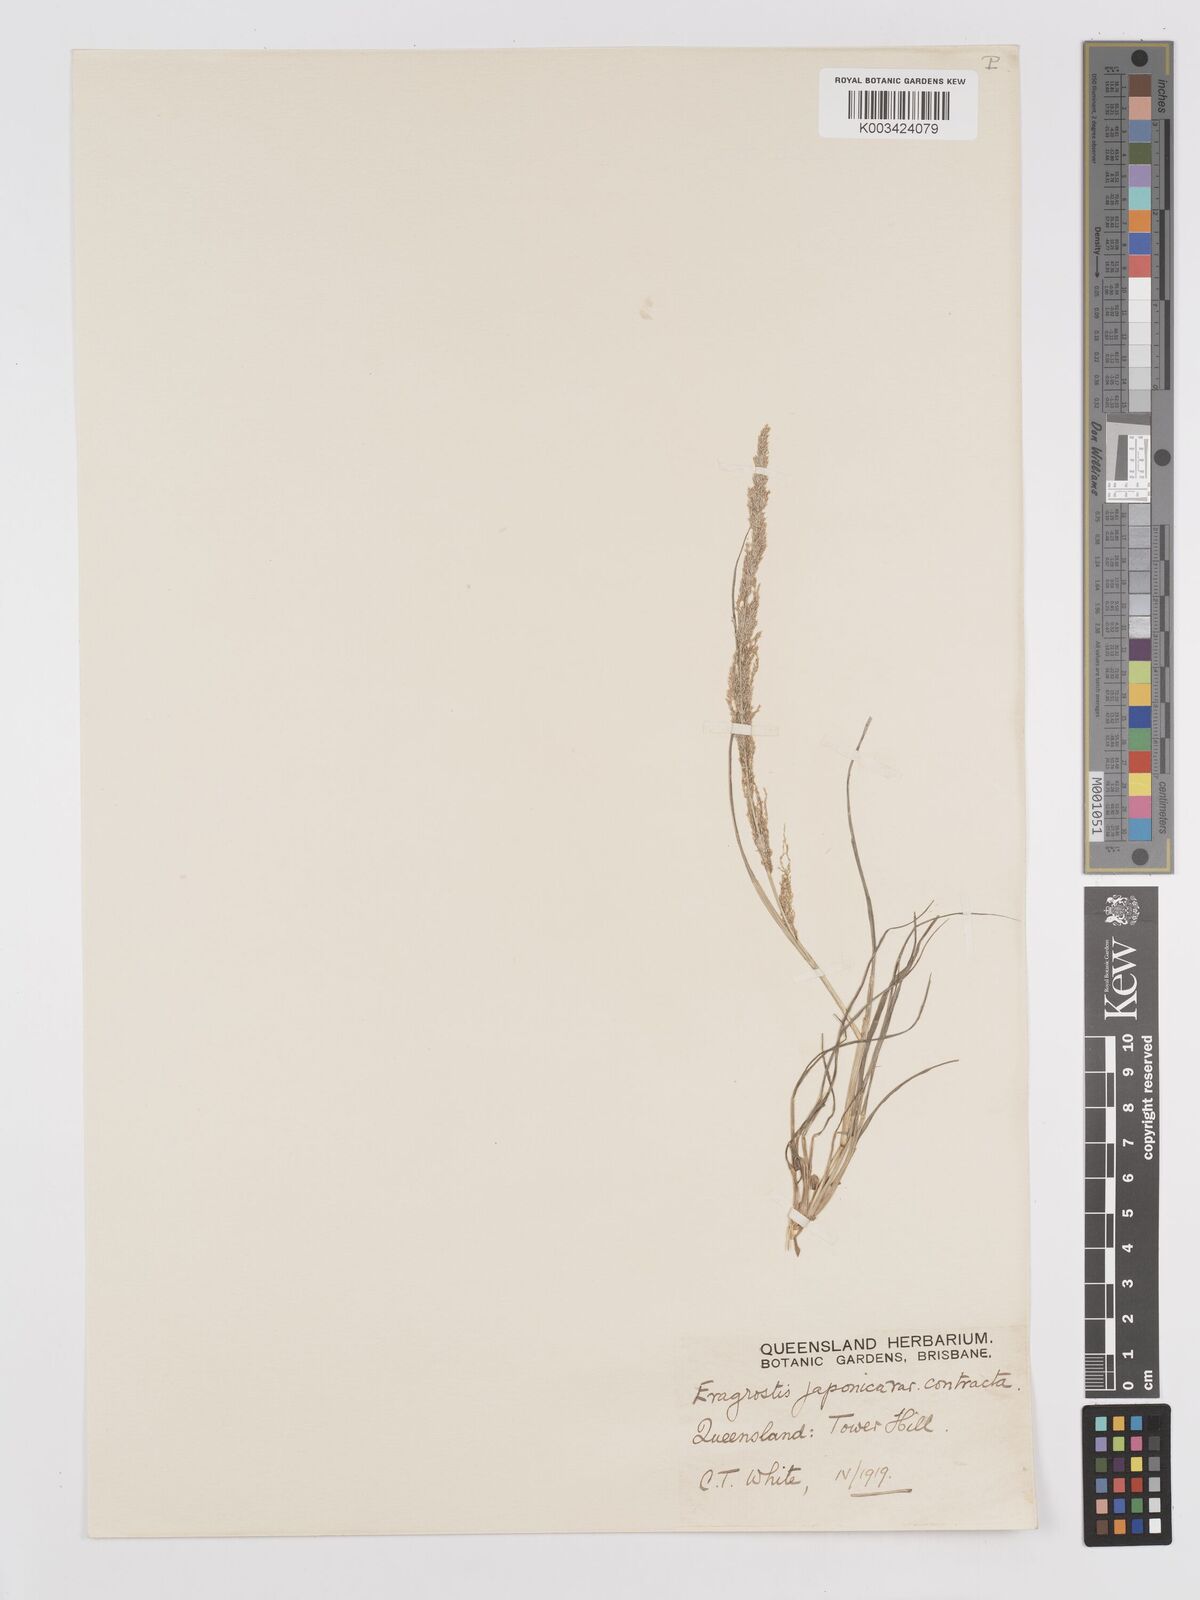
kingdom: Plantae
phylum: Tracheophyta
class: Liliopsida
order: Poales
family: Poaceae
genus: Eragrostis
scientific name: Eragrostis confertiflora
